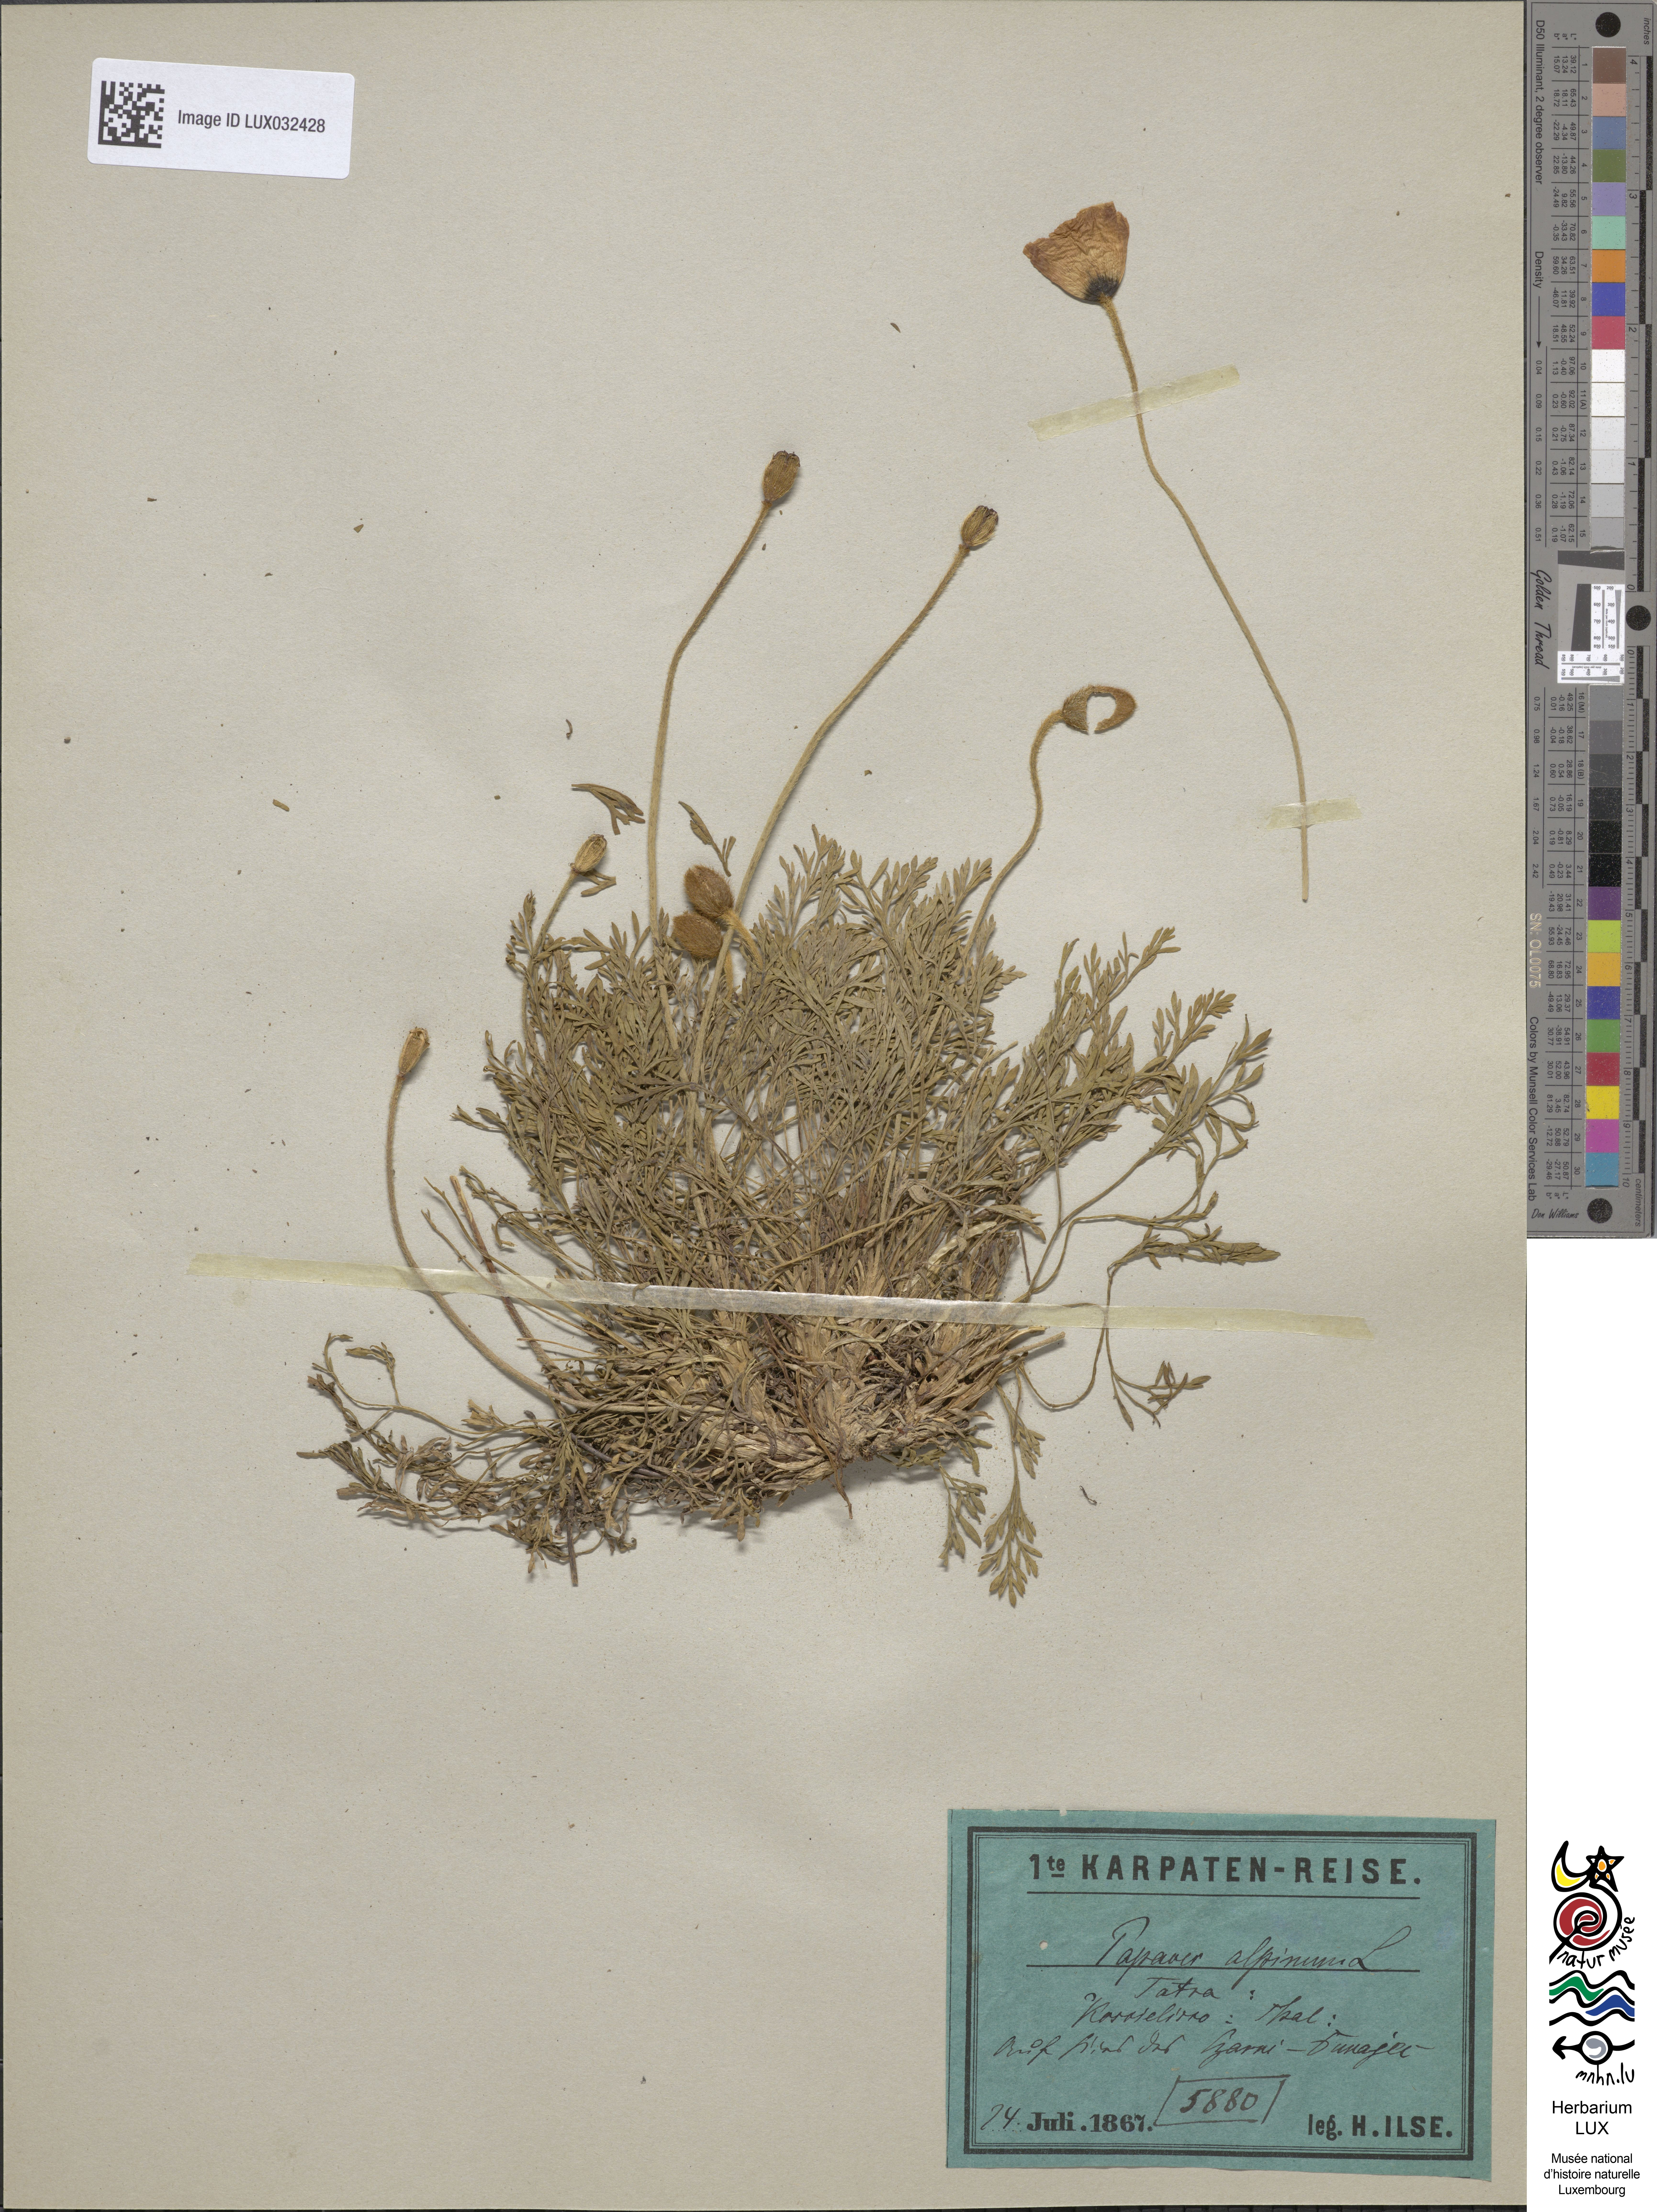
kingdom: Plantae
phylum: Tracheophyta
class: Magnoliopsida
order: Ranunculales
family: Papaveraceae
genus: Papaver
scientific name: Papaver alpinum
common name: Austrian poppy
